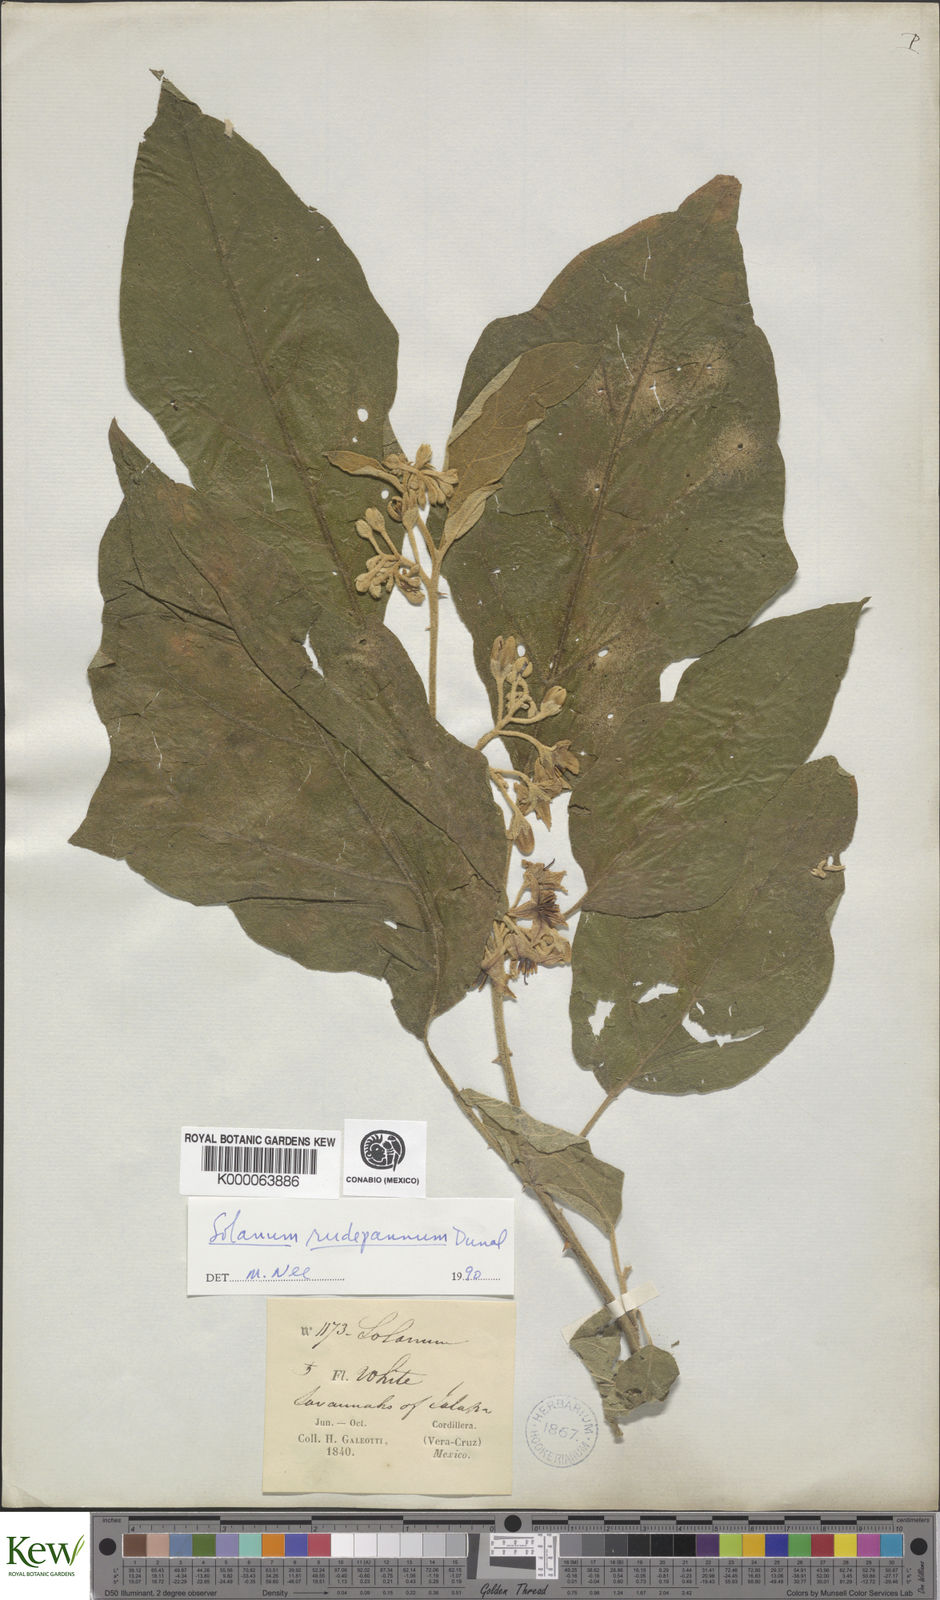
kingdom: Plantae
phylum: Tracheophyta
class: Magnoliopsida
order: Solanales
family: Solanaceae
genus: Solanum
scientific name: Solanum rude-pannum
